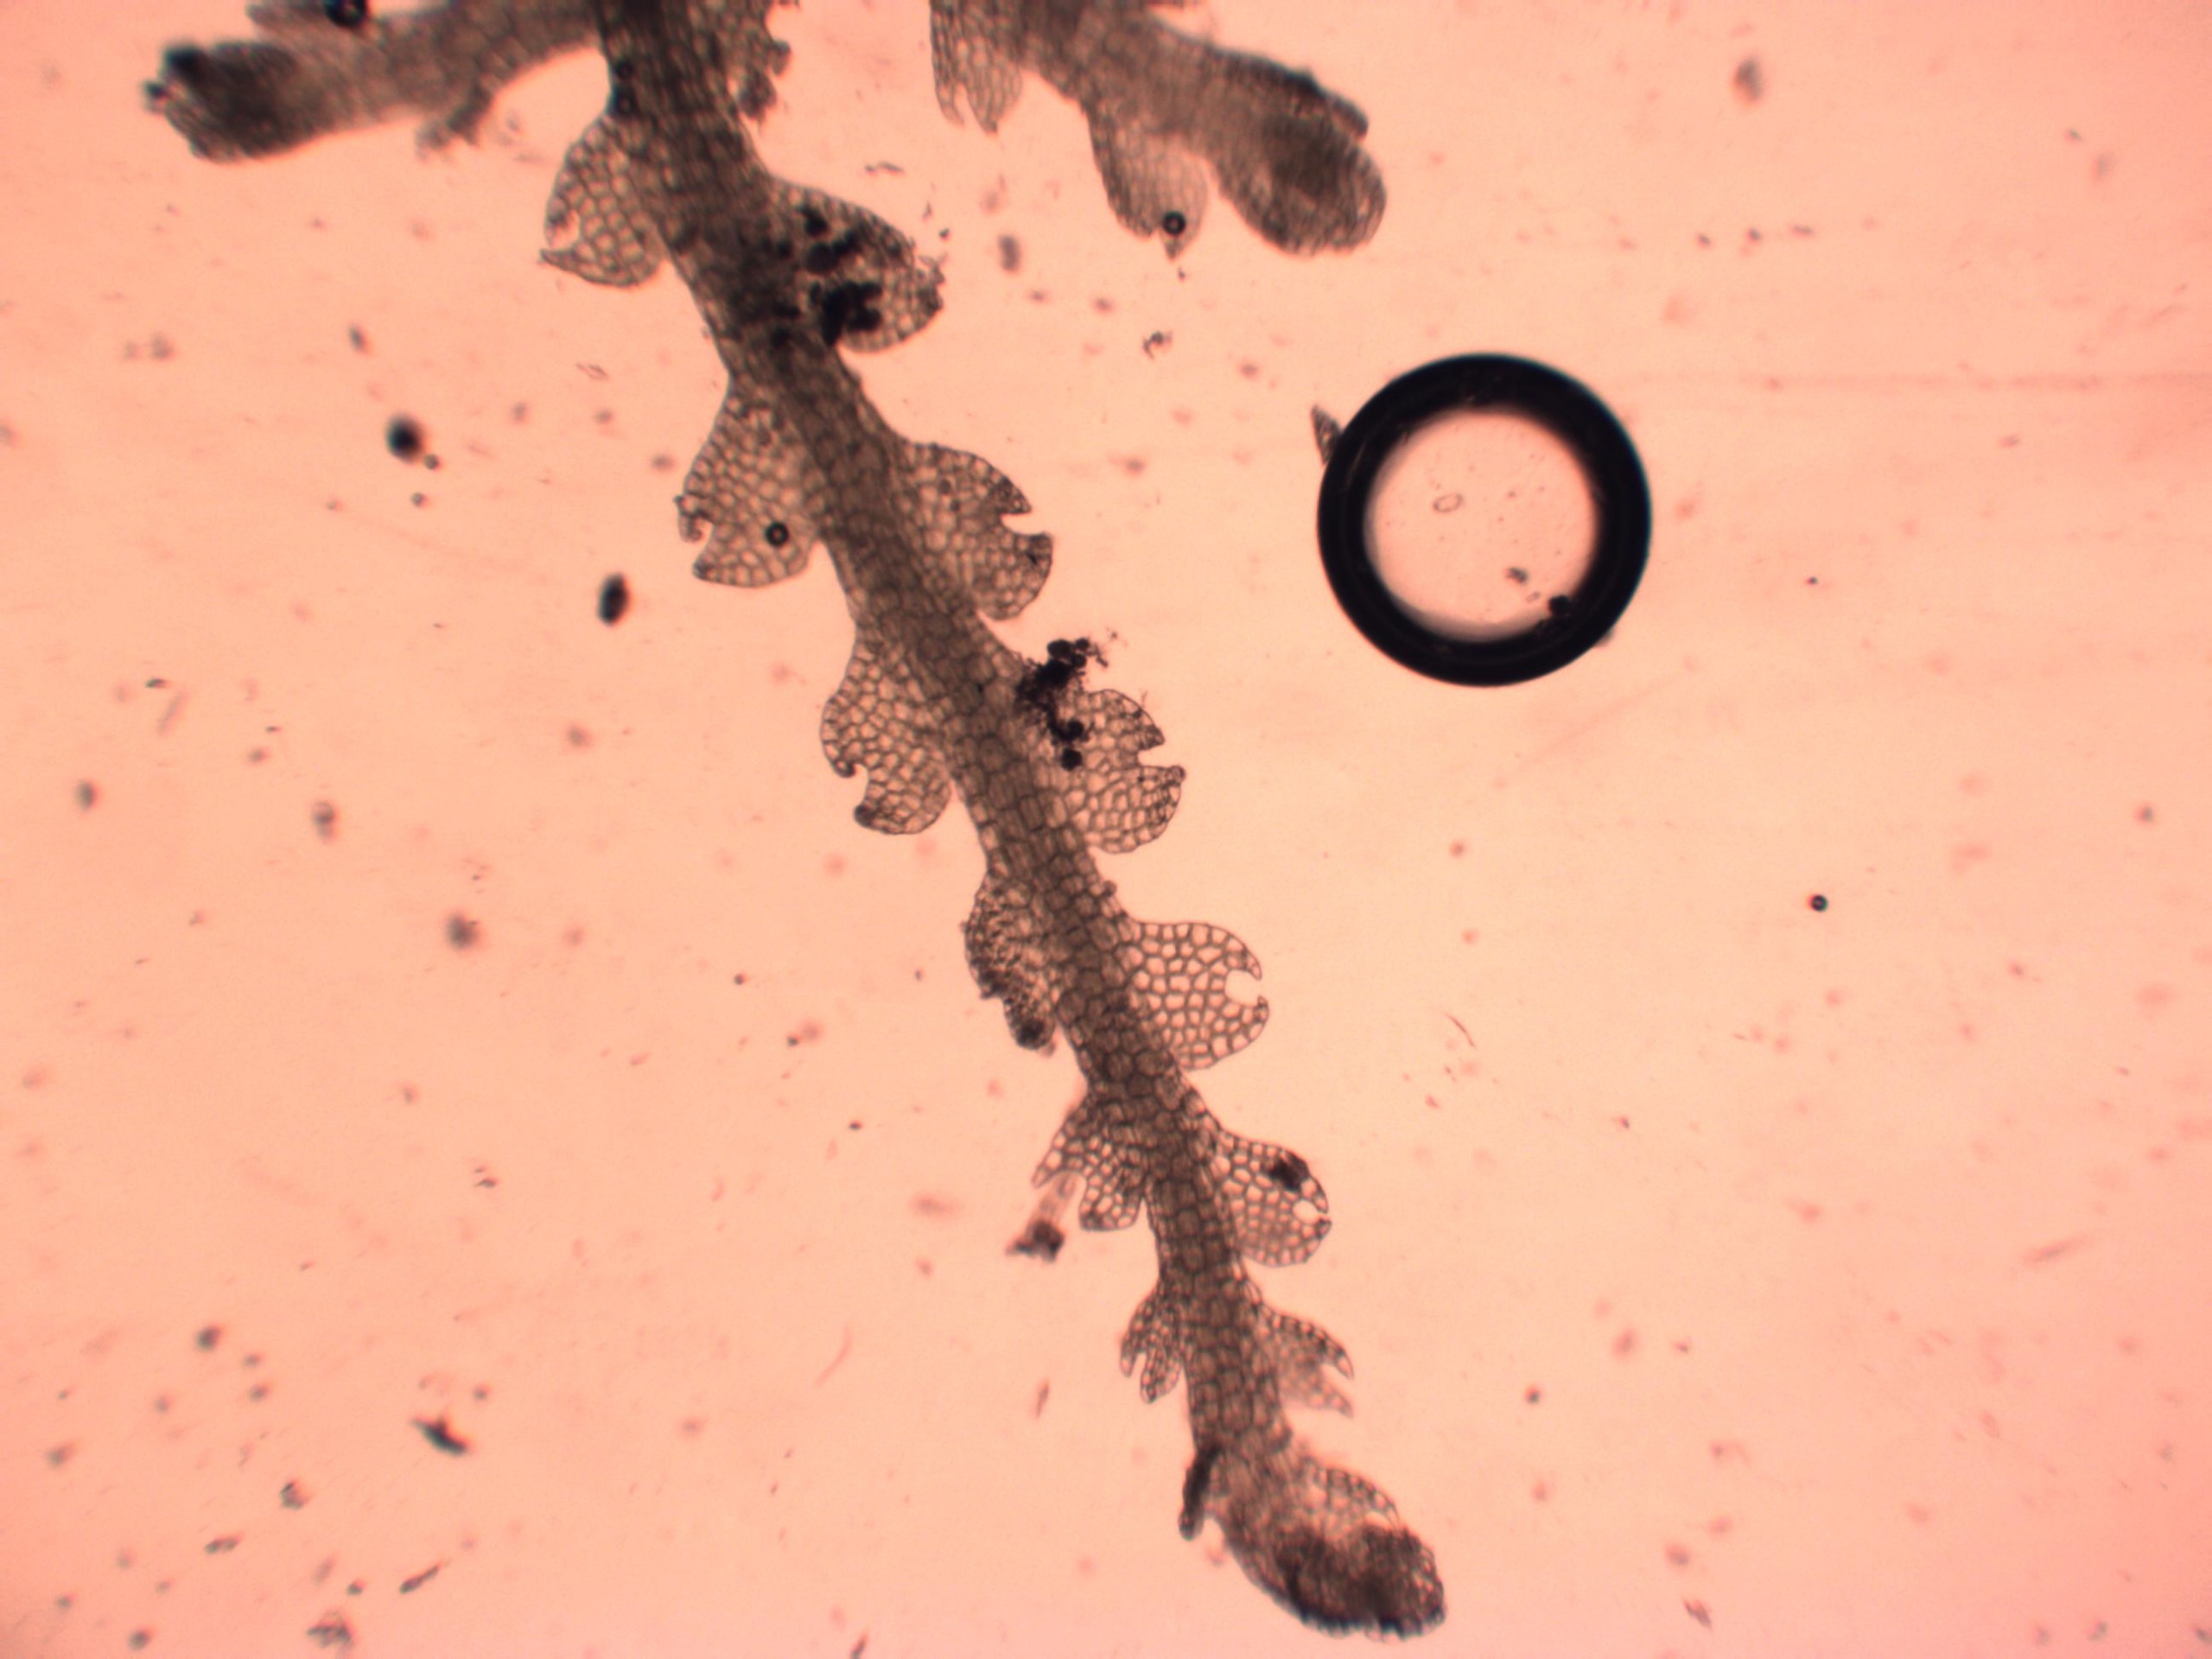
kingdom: Plantae
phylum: Marchantiophyta
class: Jungermanniopsida
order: Jungermanniales
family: Cephaloziaceae
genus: Fuscocephaloziopsis
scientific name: Fuscocephaloziopsis connivens
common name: Flad kantbæger
